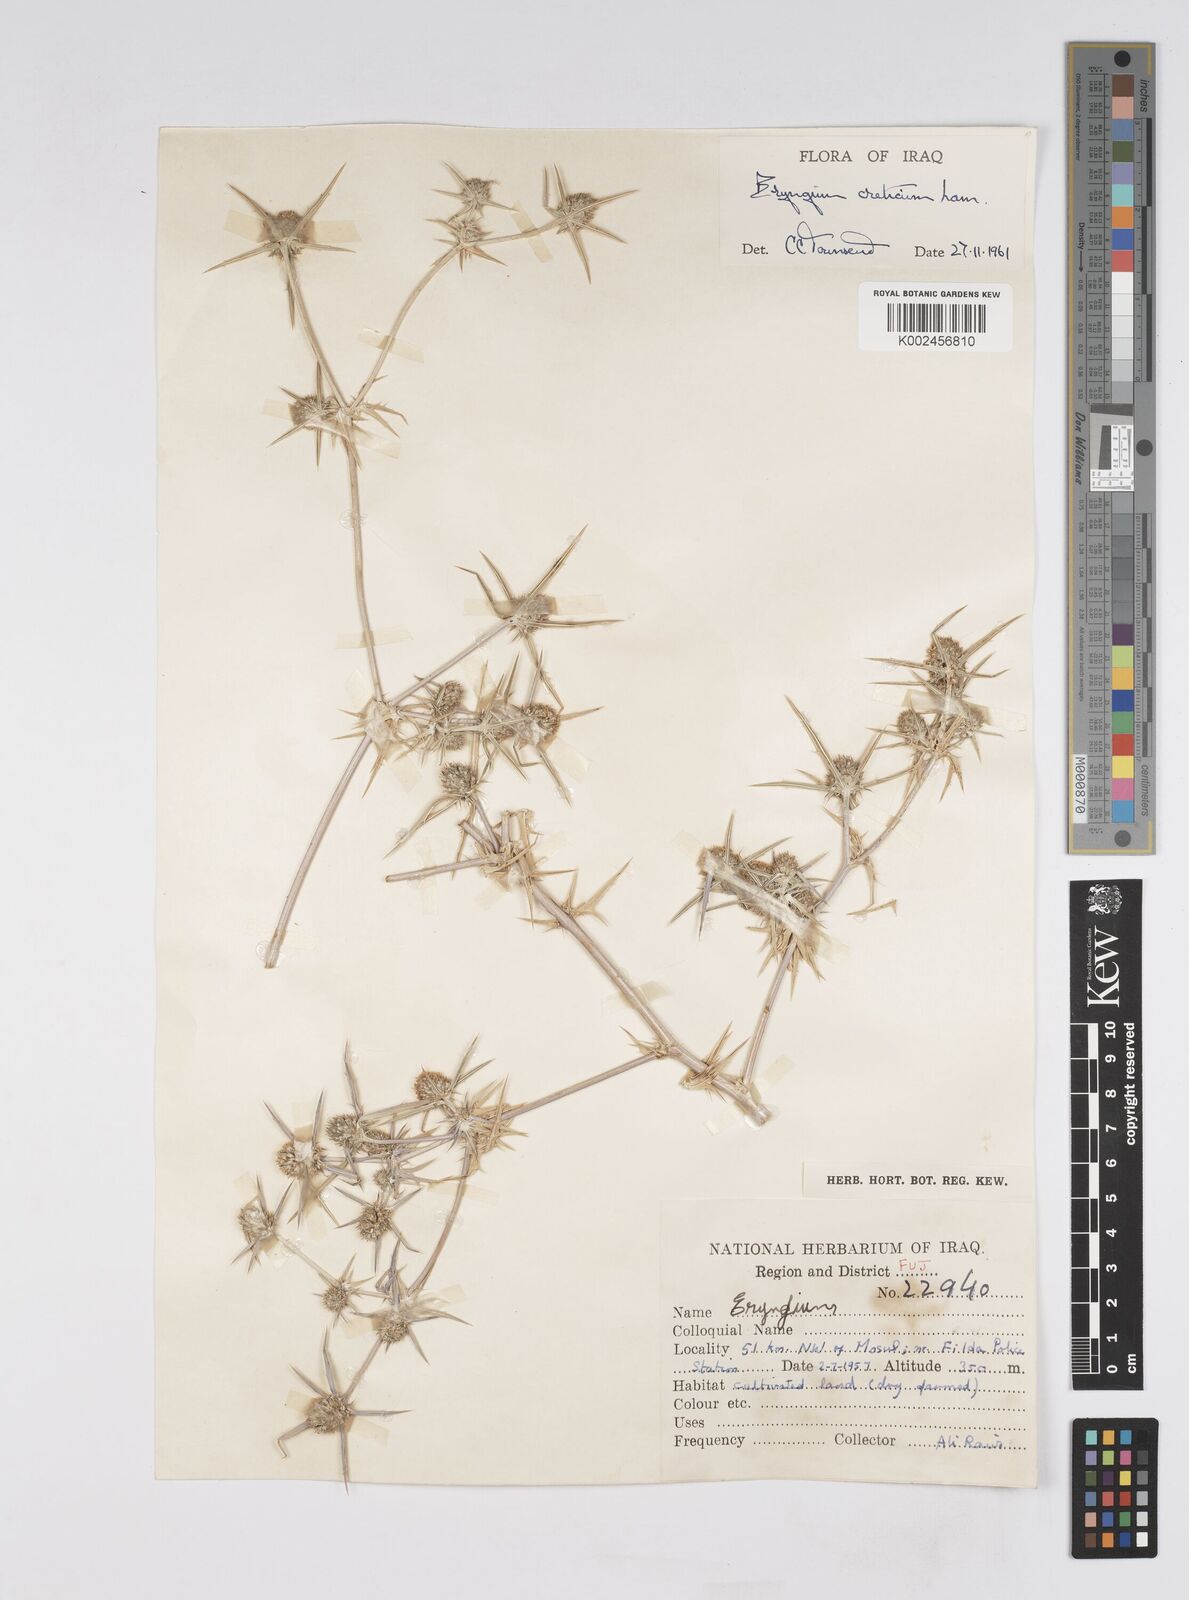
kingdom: Plantae
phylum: Tracheophyta
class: Magnoliopsida
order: Apiales
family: Apiaceae
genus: Eryngium
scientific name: Eryngium creticum
